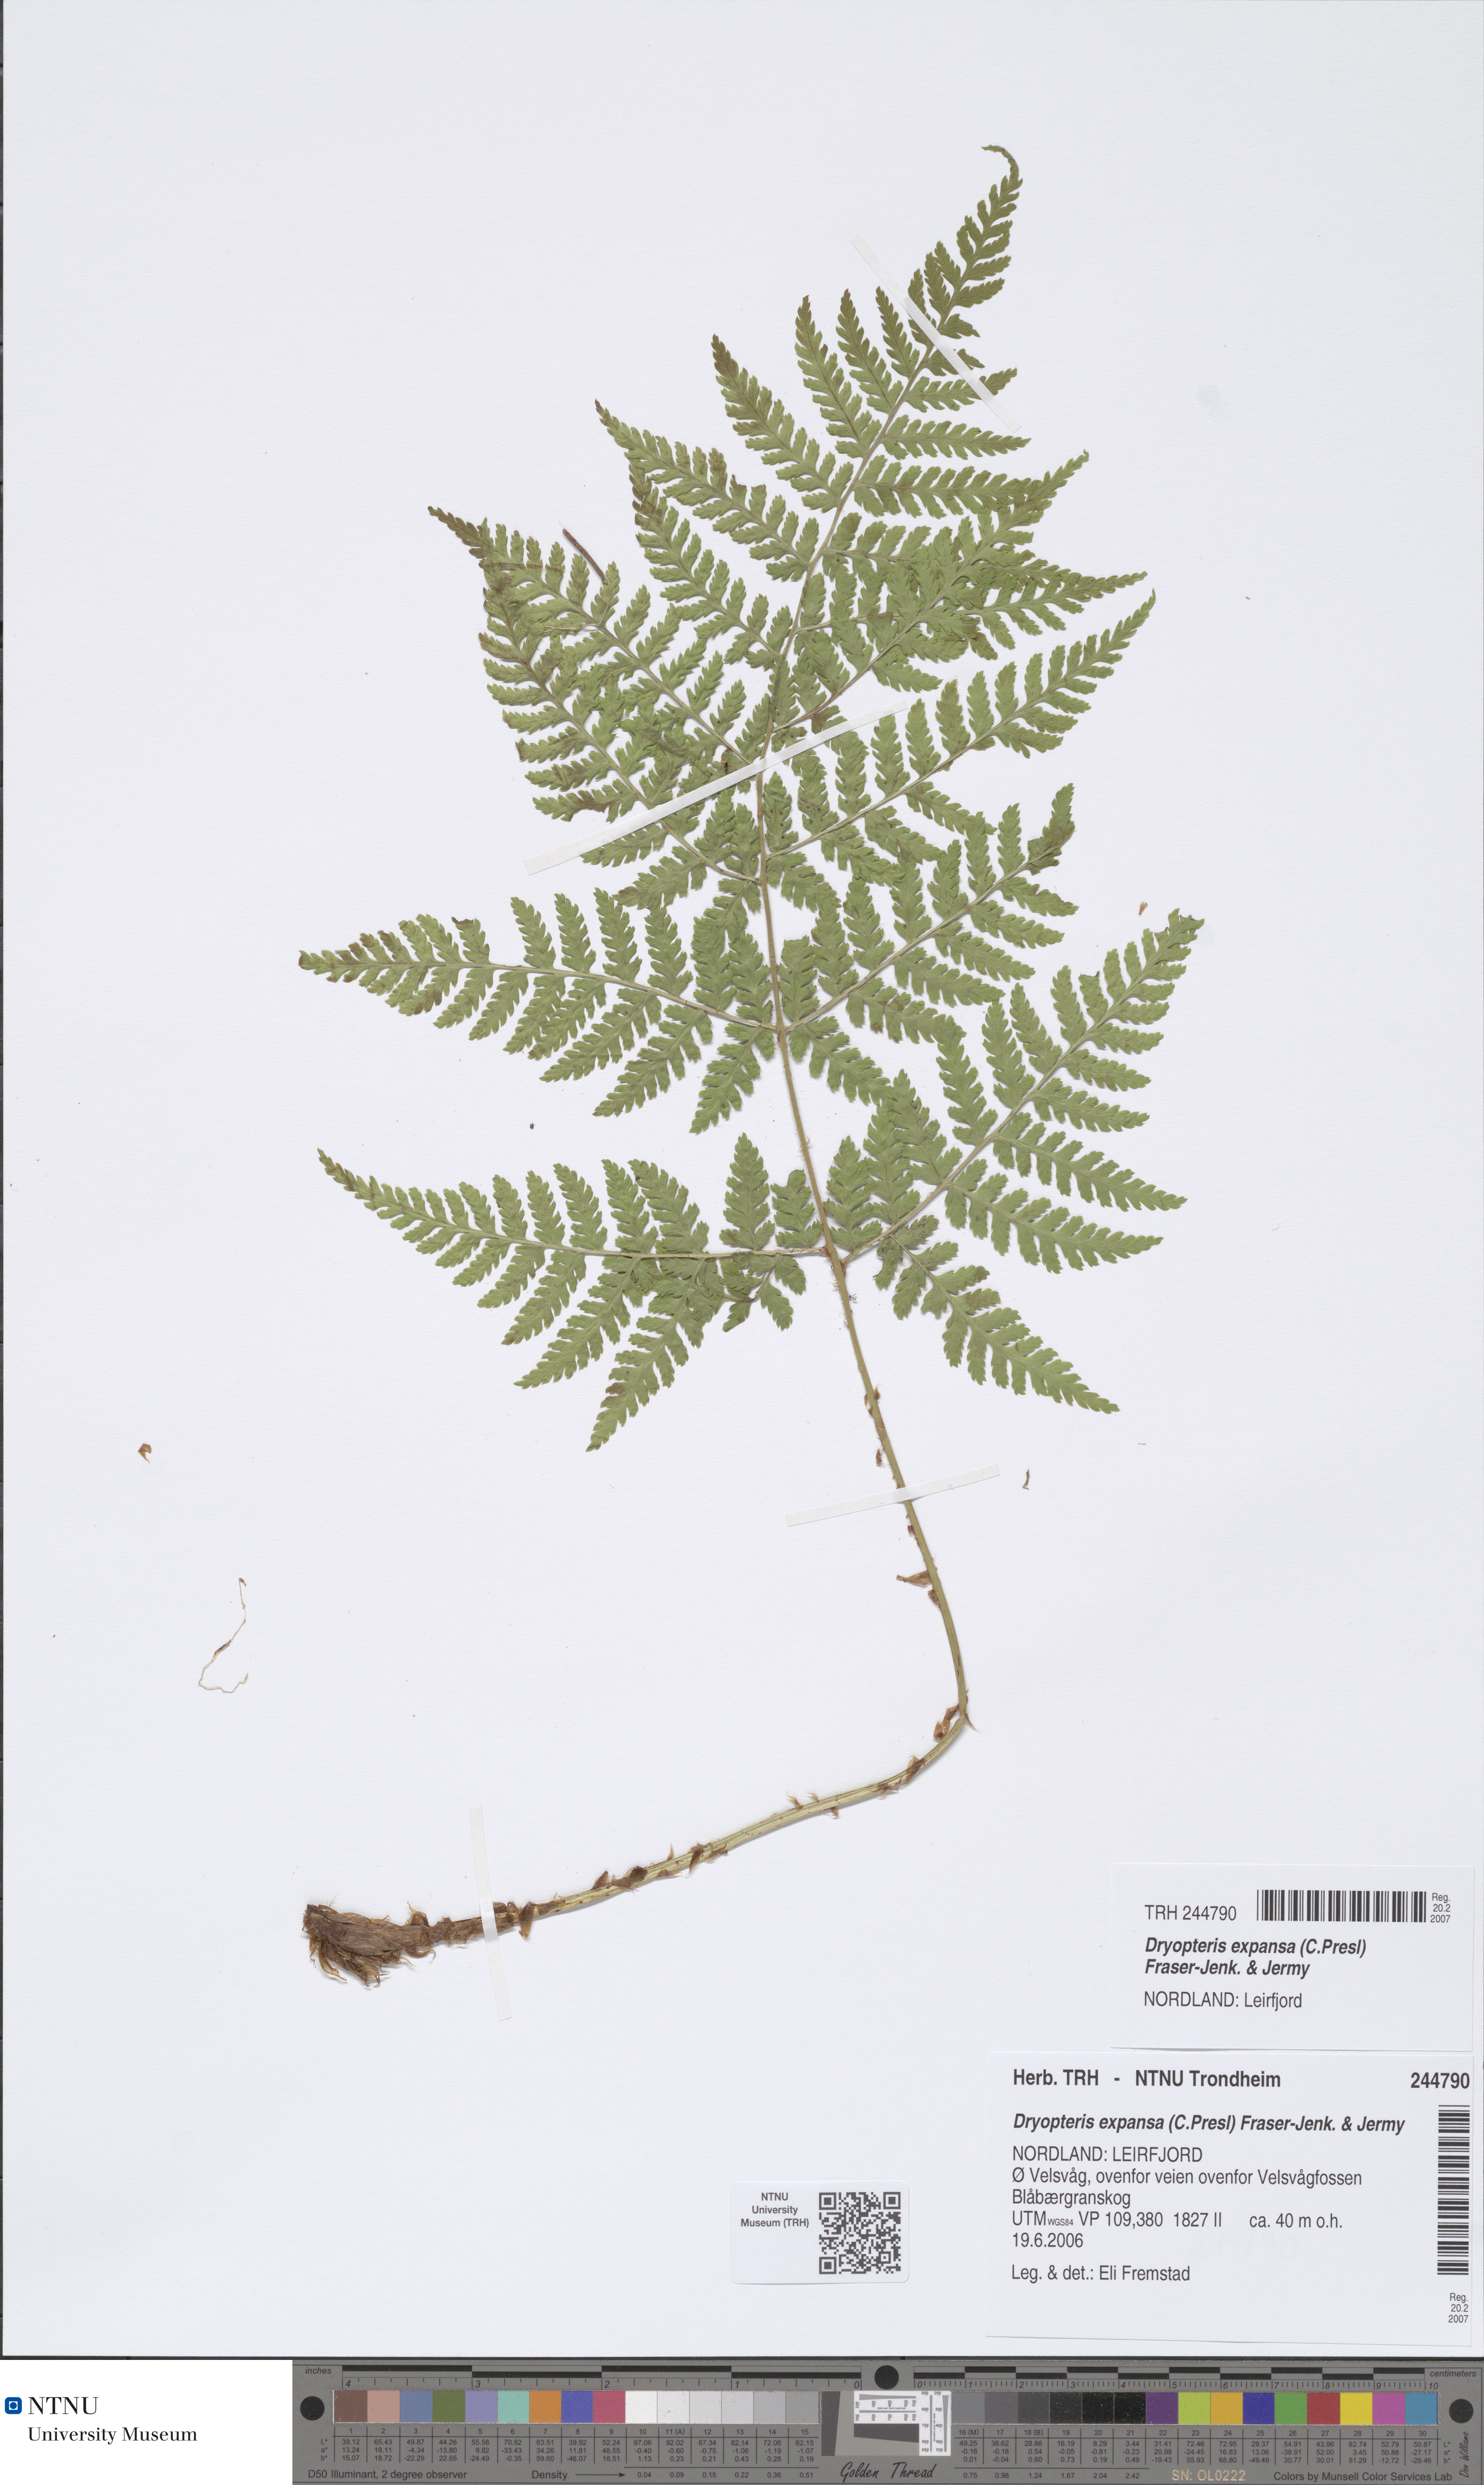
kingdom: Plantae
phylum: Tracheophyta
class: Polypodiopsida
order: Polypodiales
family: Dryopteridaceae
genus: Dryopteris
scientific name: Dryopteris expansa
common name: Northern buckler fern
